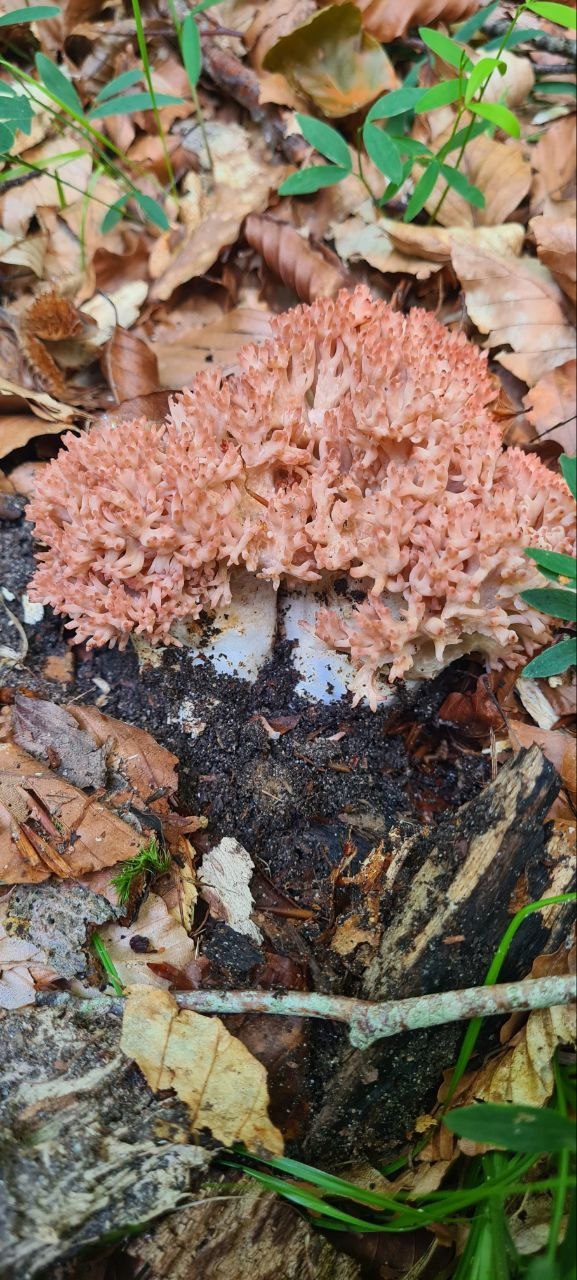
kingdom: Fungi
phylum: Basidiomycota
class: Agaricomycetes
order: Gomphales
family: Gomphaceae
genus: Ramaria
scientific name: Ramaria botrytis
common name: drue-koralsvamp
